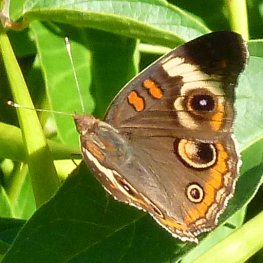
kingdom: Animalia
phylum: Arthropoda
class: Insecta
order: Lepidoptera
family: Nymphalidae
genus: Junonia
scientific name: Junonia coenia
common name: Common Buckeye
